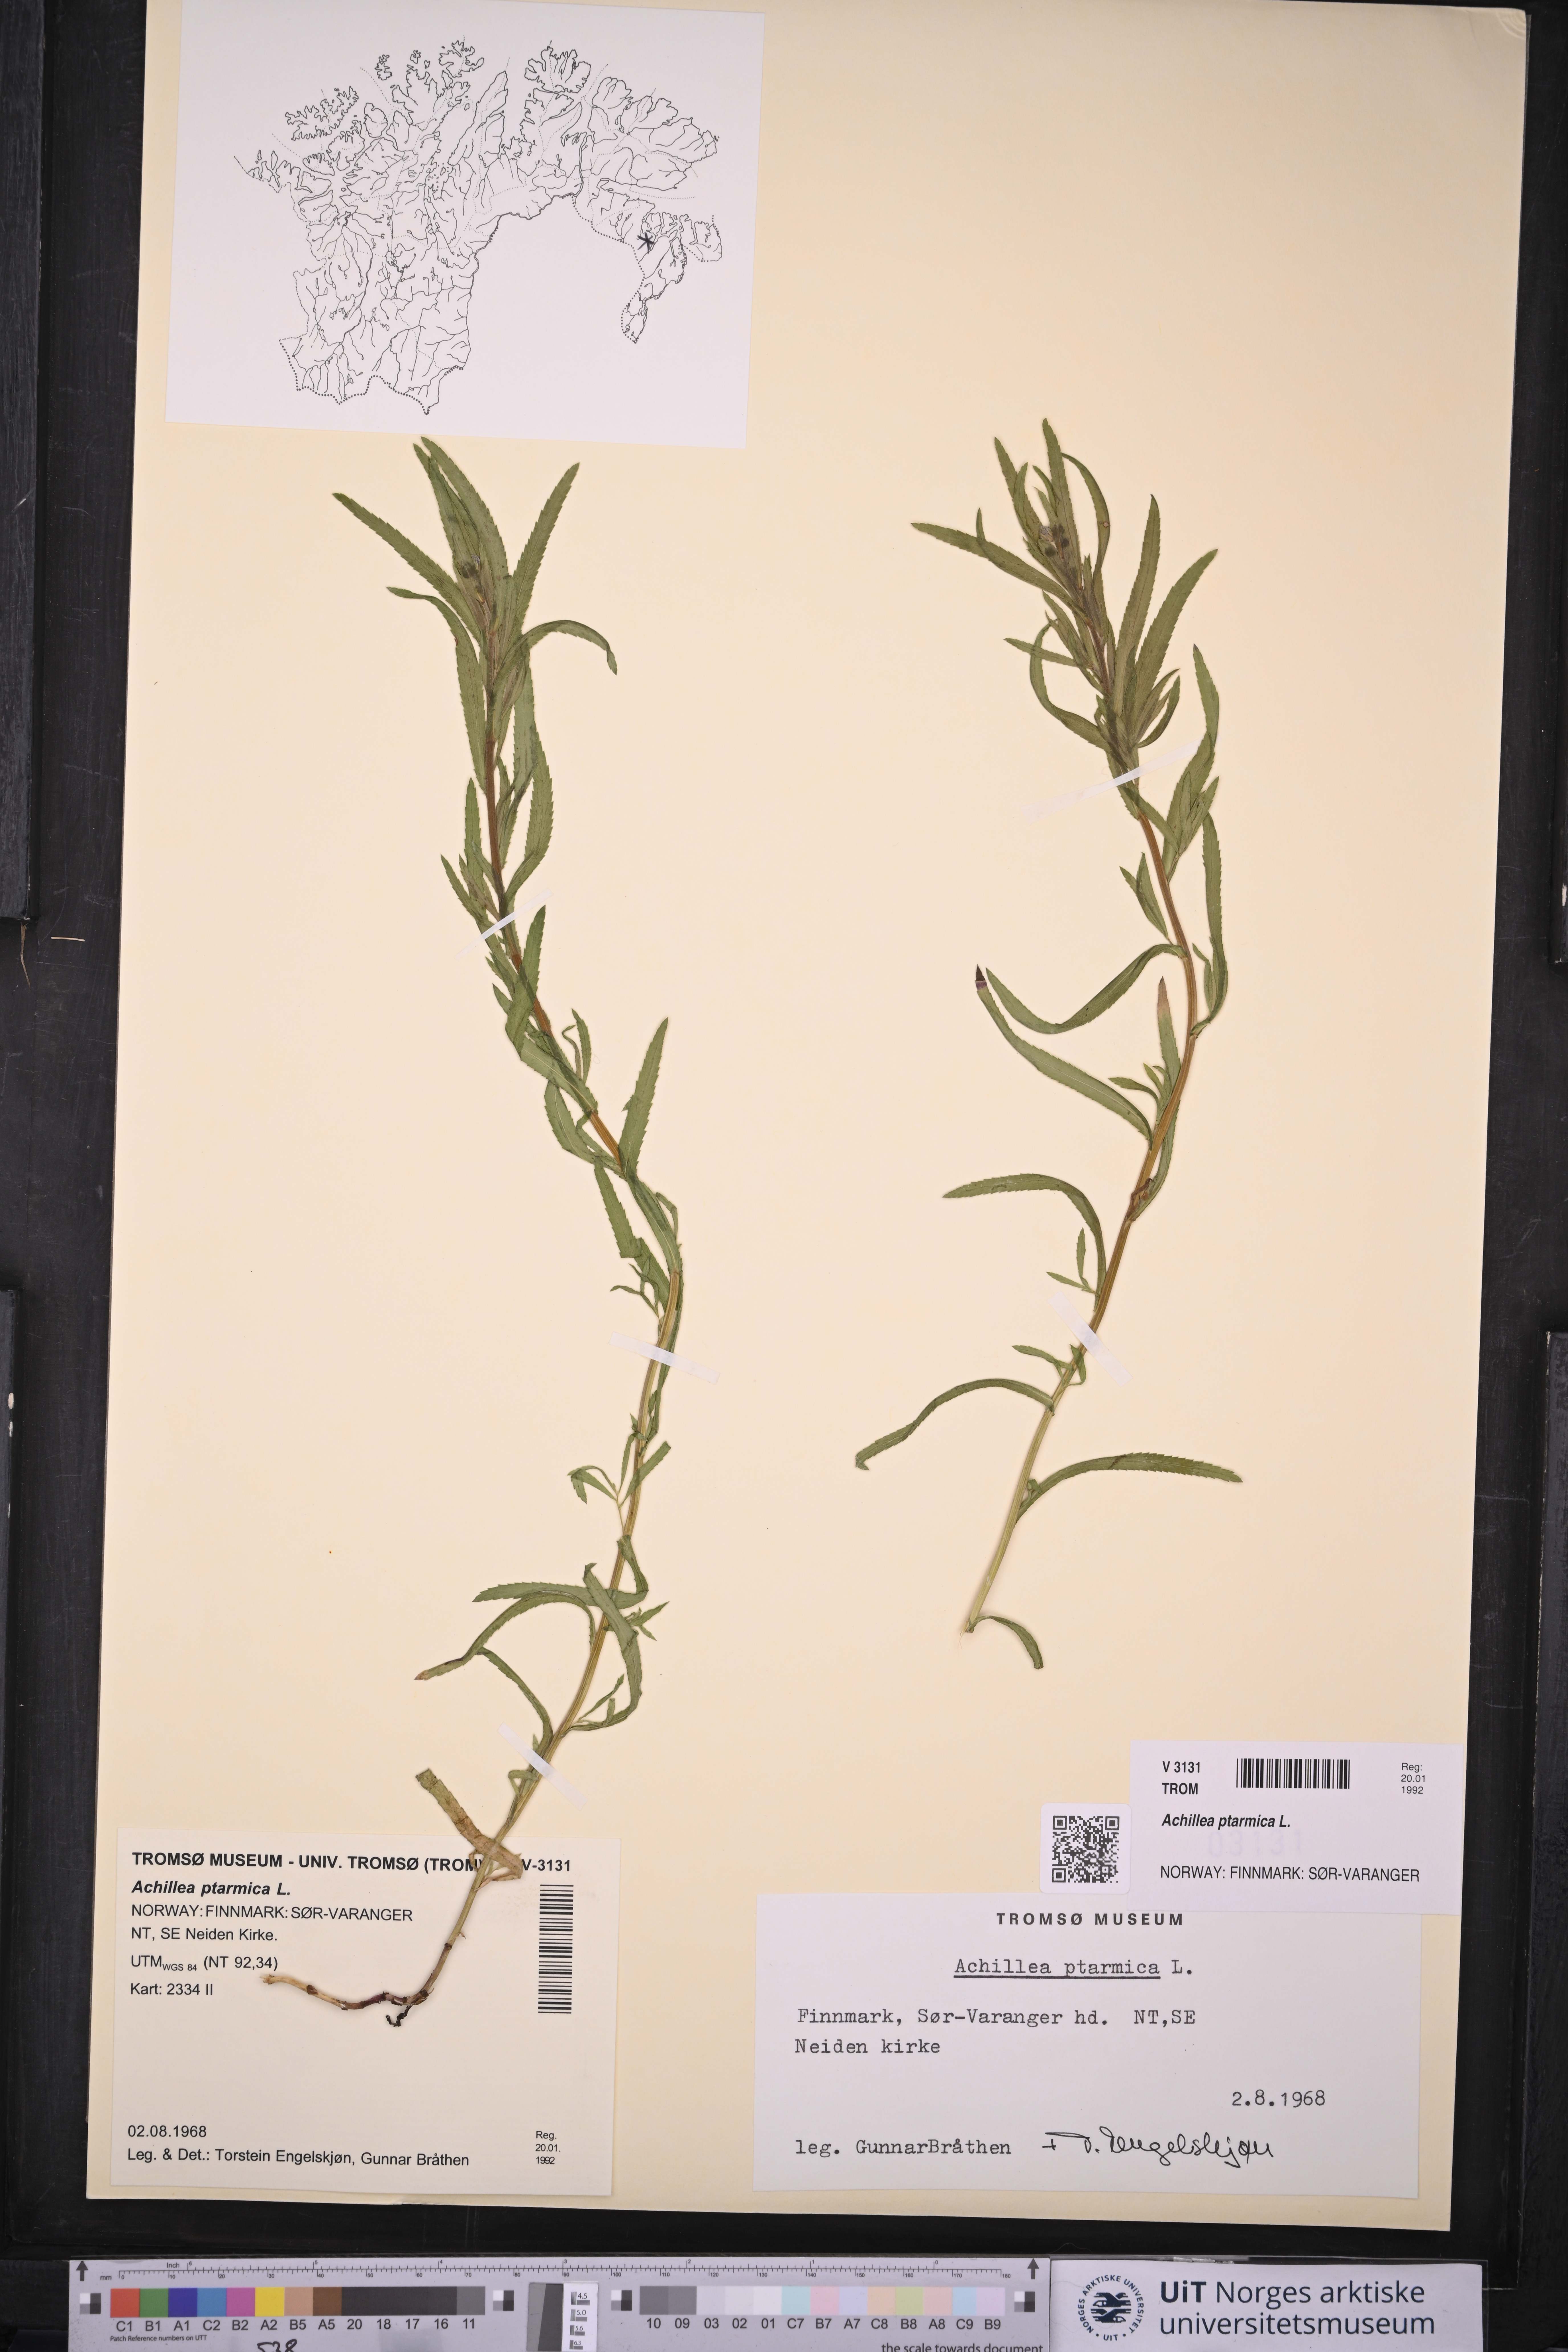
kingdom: Plantae
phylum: Tracheophyta
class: Magnoliopsida
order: Asterales
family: Asteraceae
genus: Achillea
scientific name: Achillea ptarmica
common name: Sneezeweed
